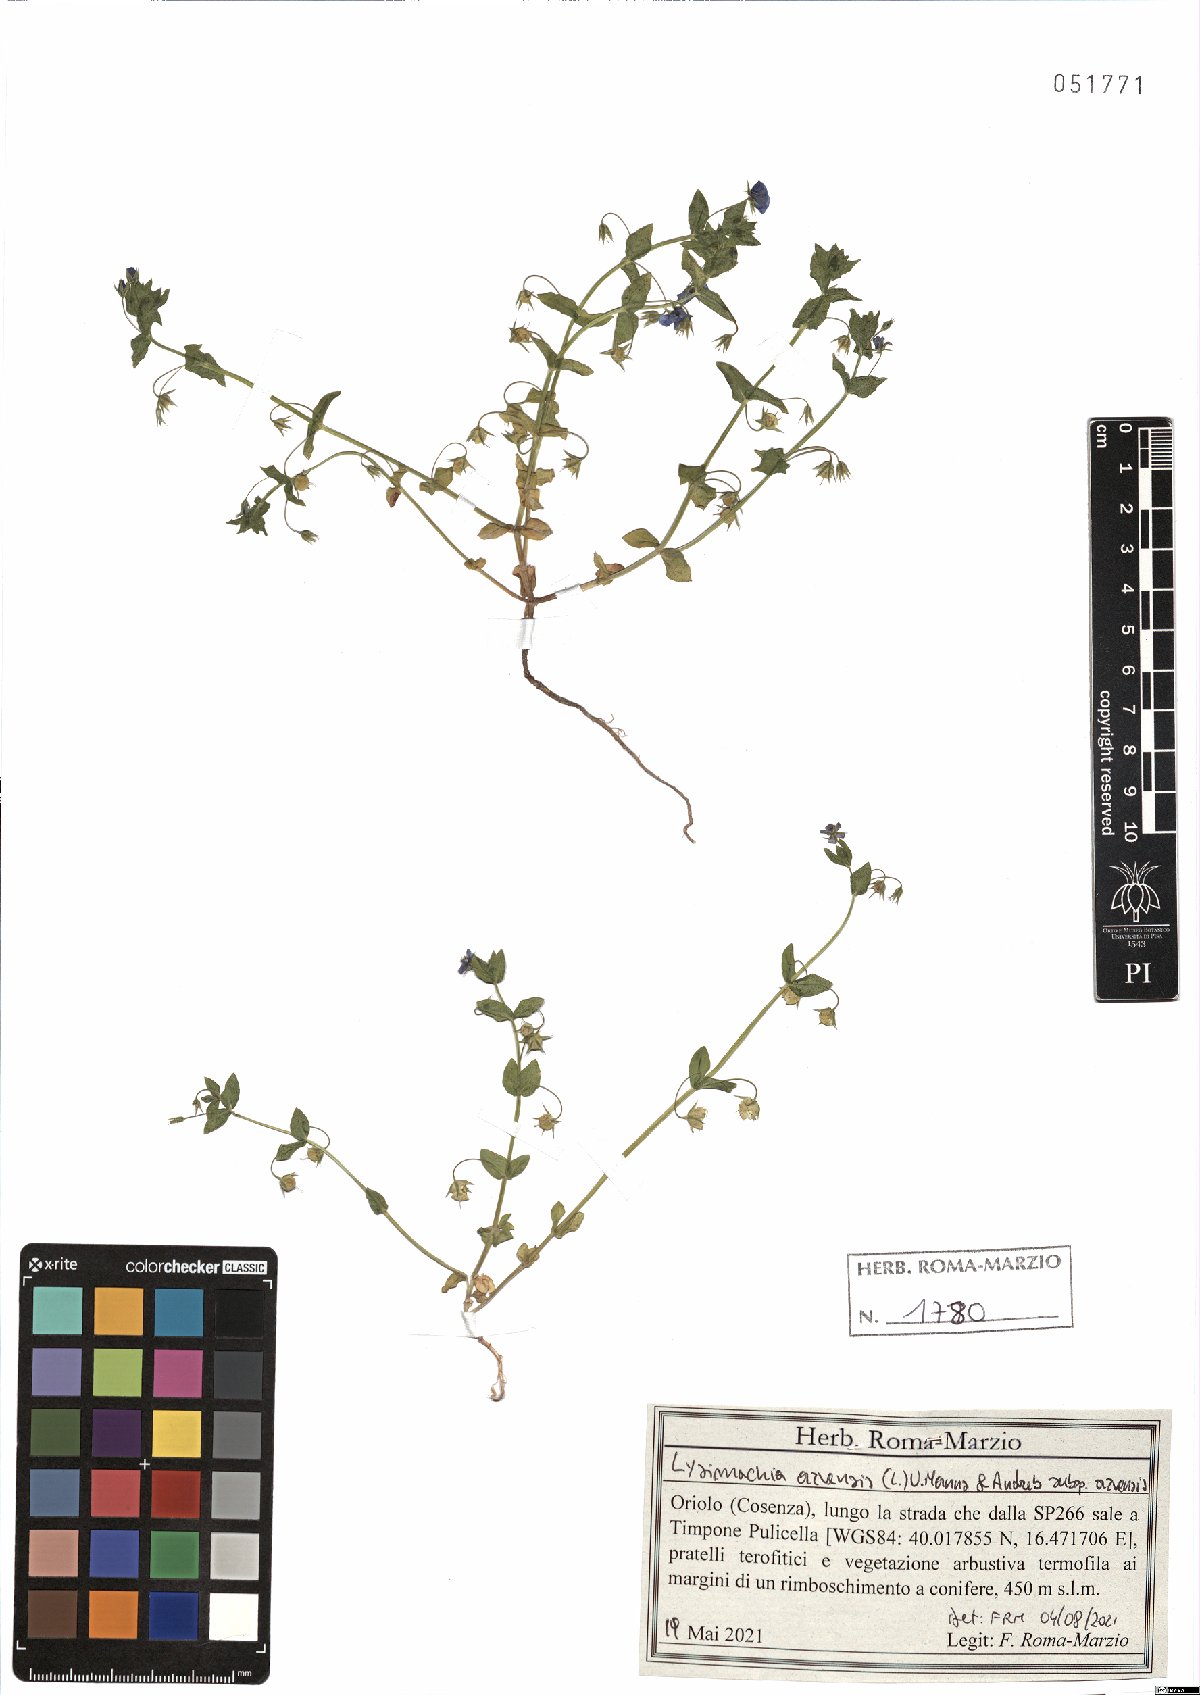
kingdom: Plantae
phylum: Tracheophyta
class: Magnoliopsida
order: Ericales
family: Primulaceae
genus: Lysimachia
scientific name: Lysimachia arvensis
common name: Scarlet pimpernel
